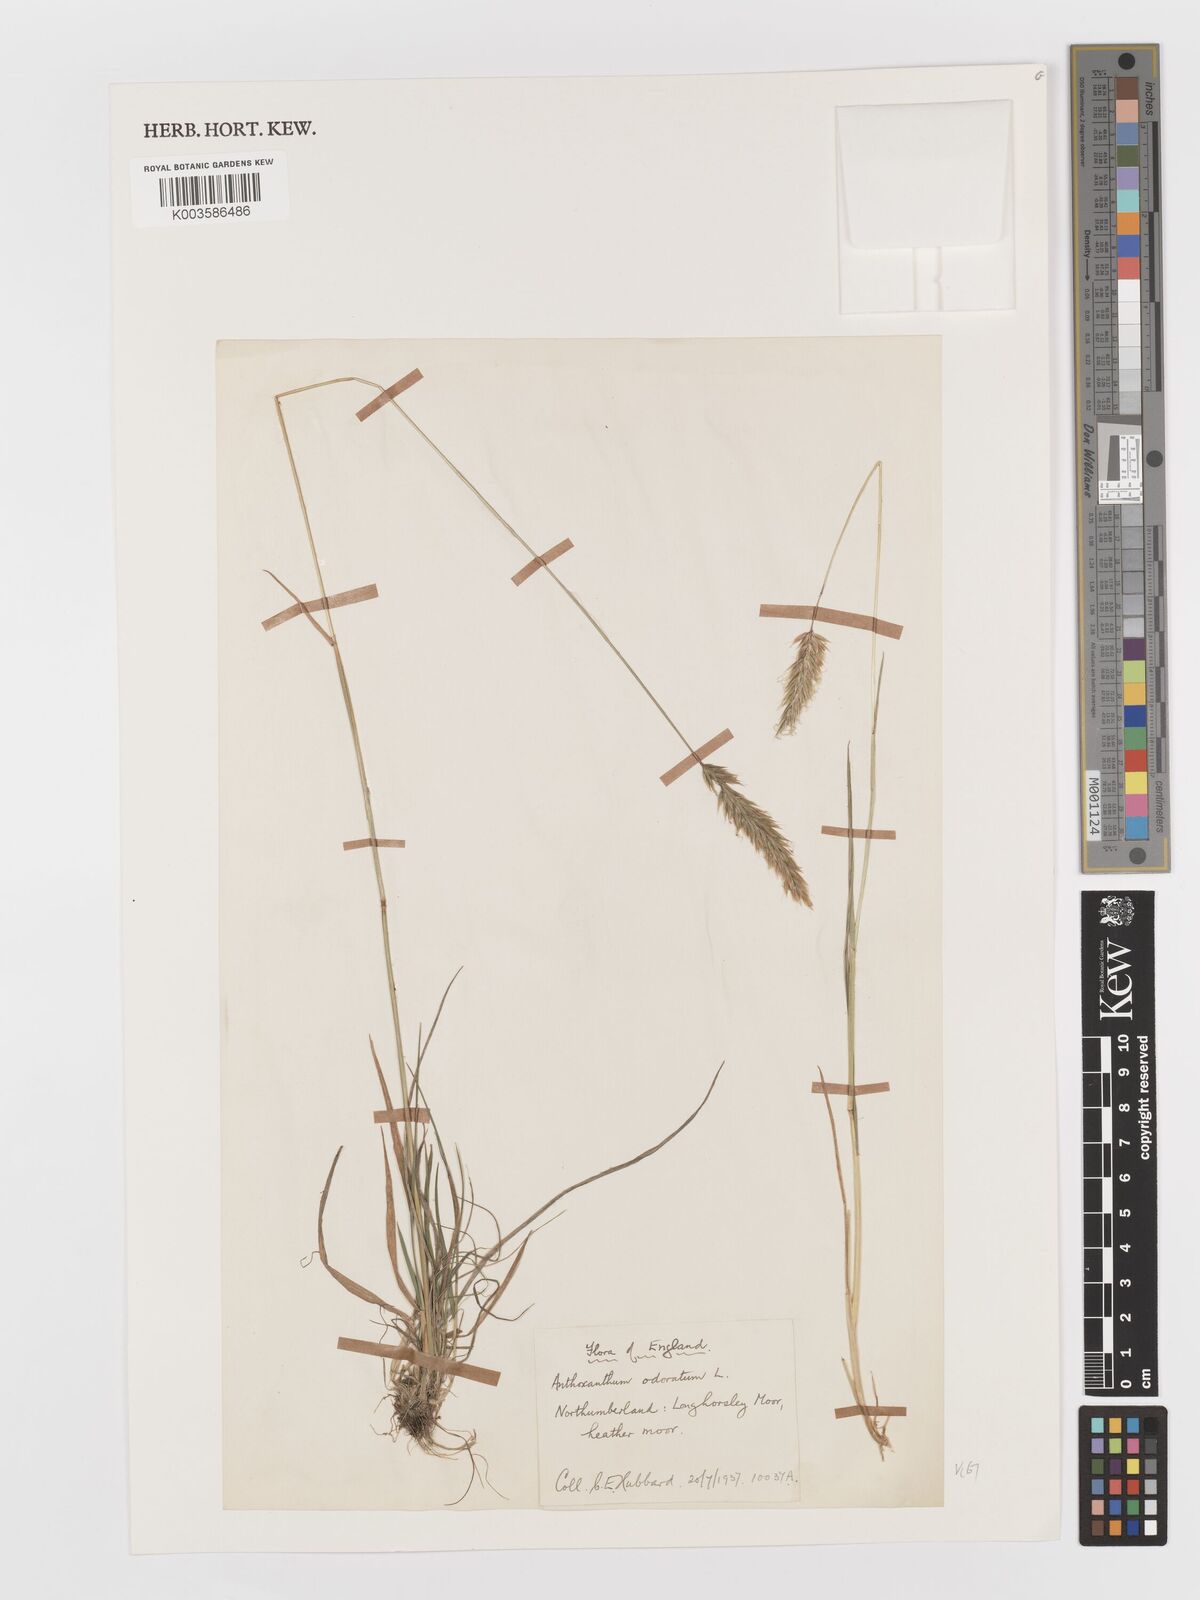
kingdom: Plantae
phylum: Tracheophyta
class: Liliopsida
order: Poales
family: Poaceae
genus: Anthoxanthum
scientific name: Anthoxanthum odoratum
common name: Sweet vernalgrass
